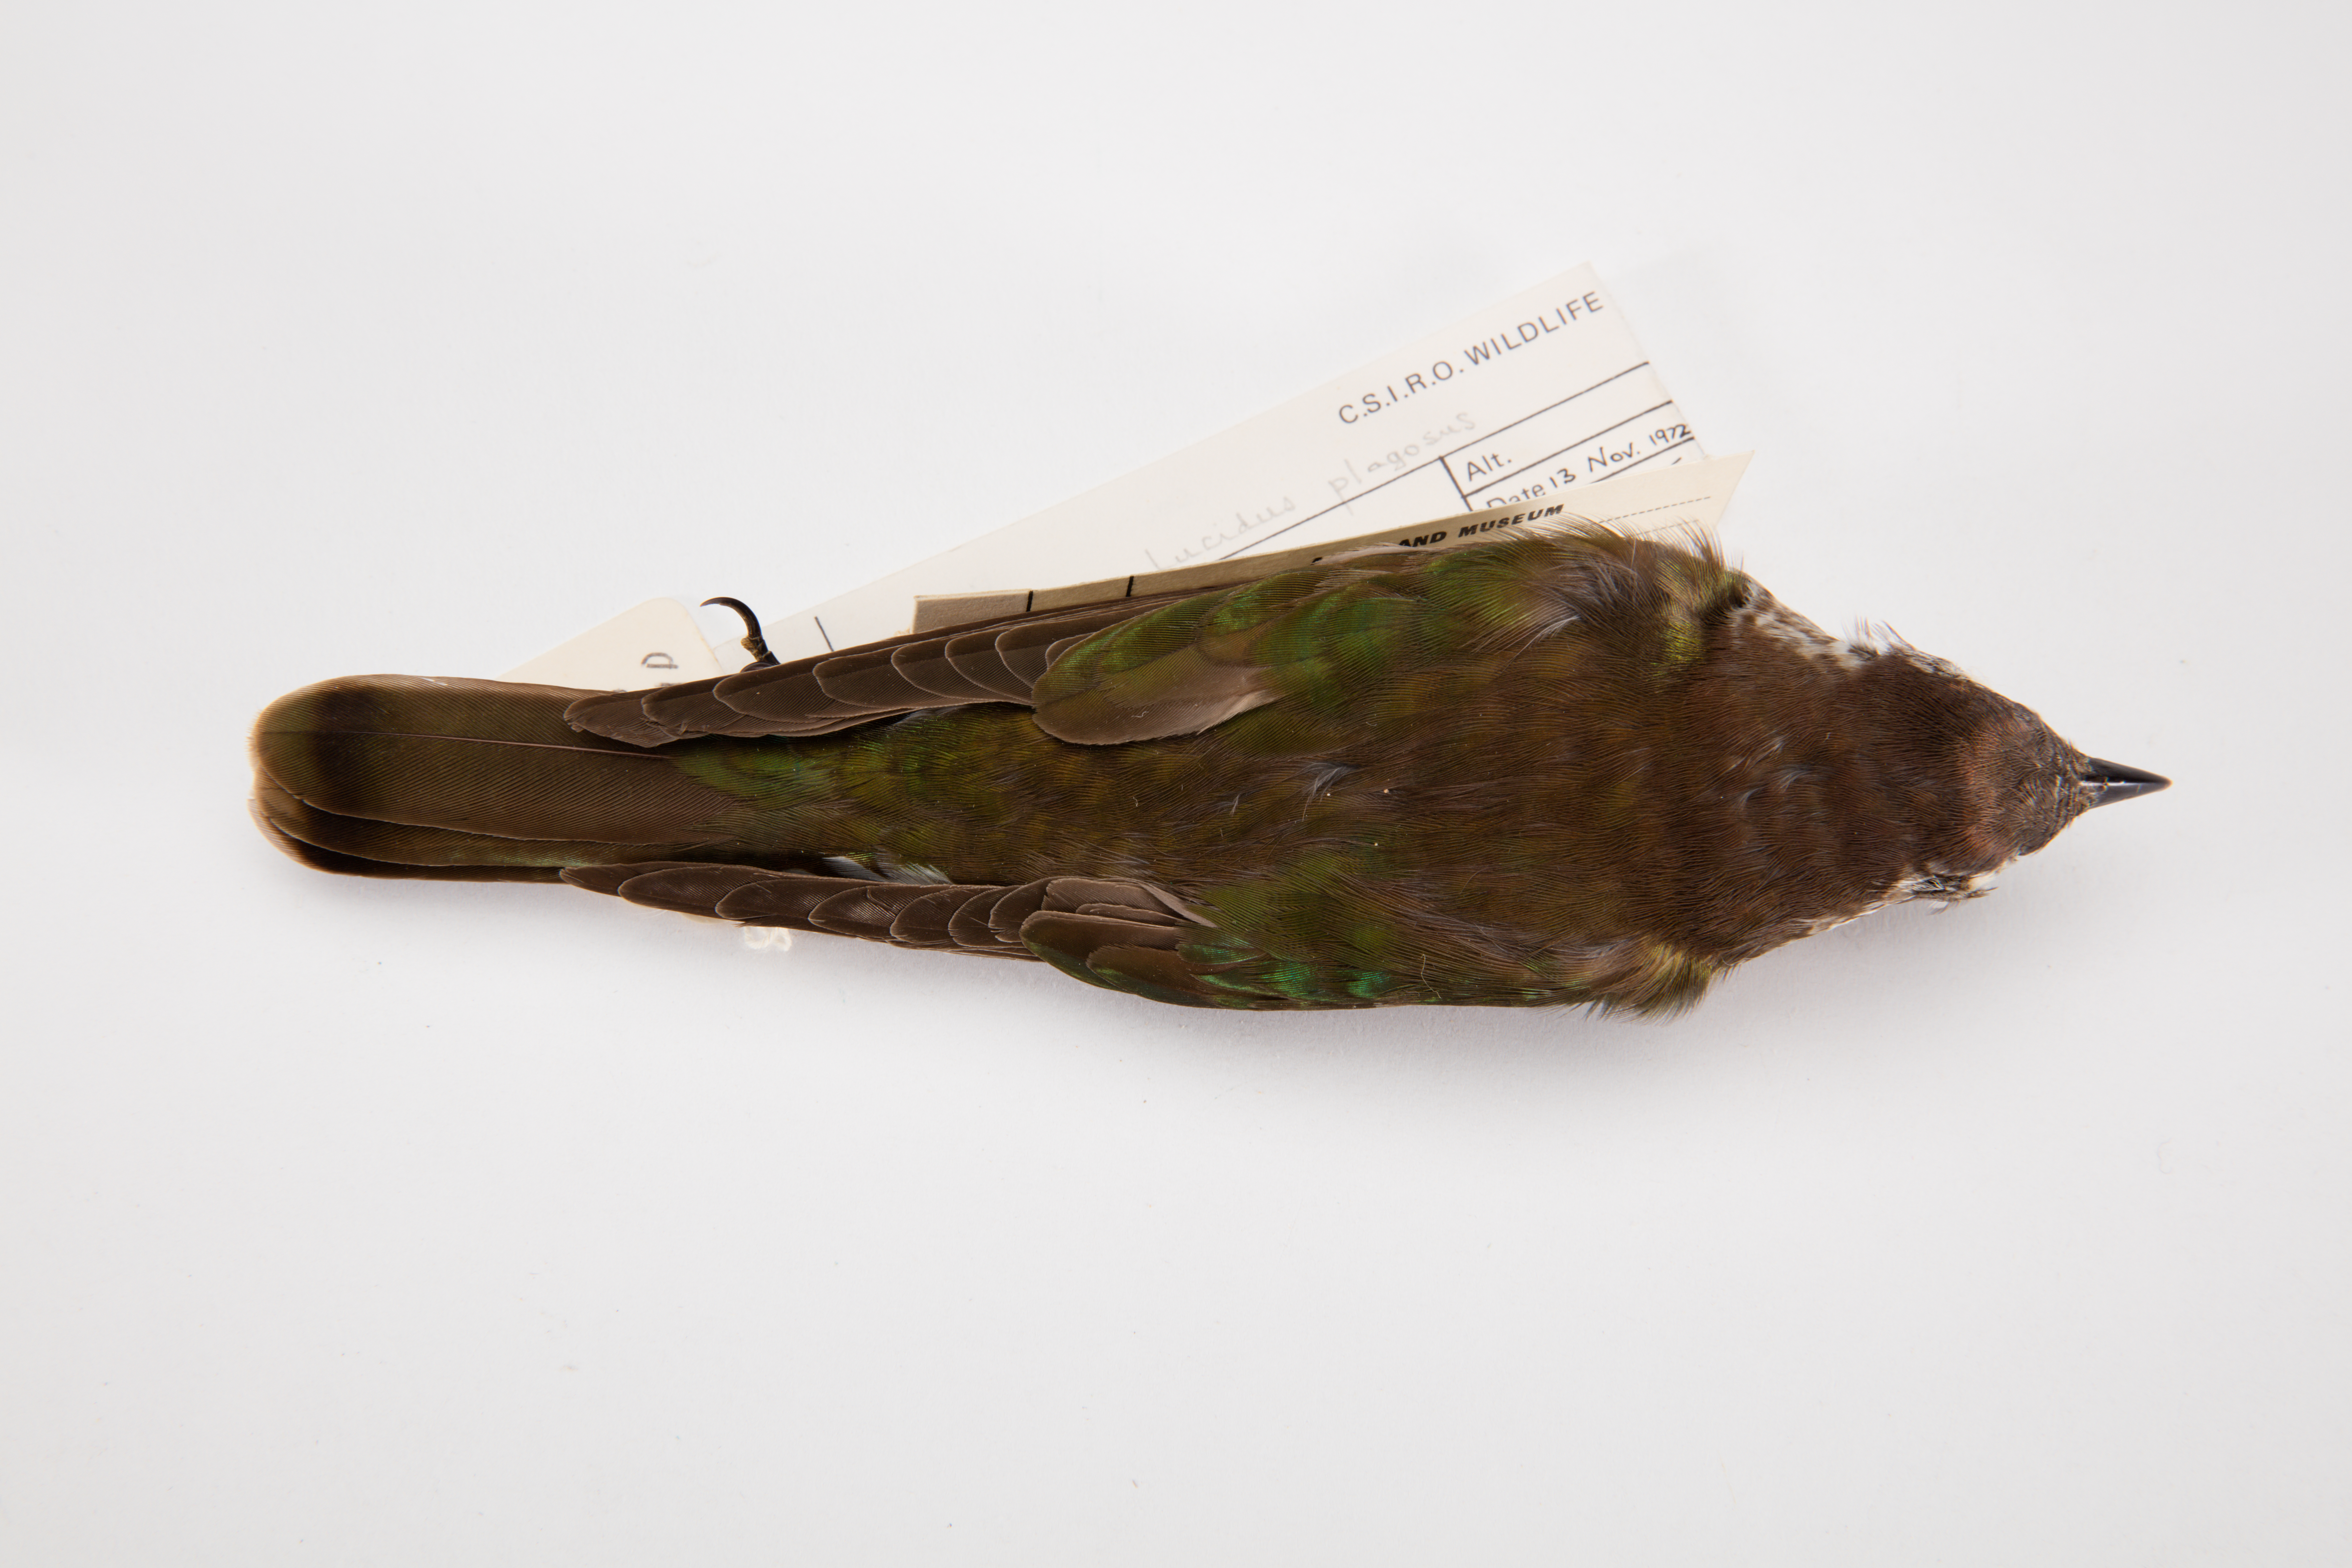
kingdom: Animalia
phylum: Chordata
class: Aves
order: Cuculiformes
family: Cuculidae
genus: Chrysococcyx
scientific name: Chrysococcyx lucidus
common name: Shining bronze cuckoo
